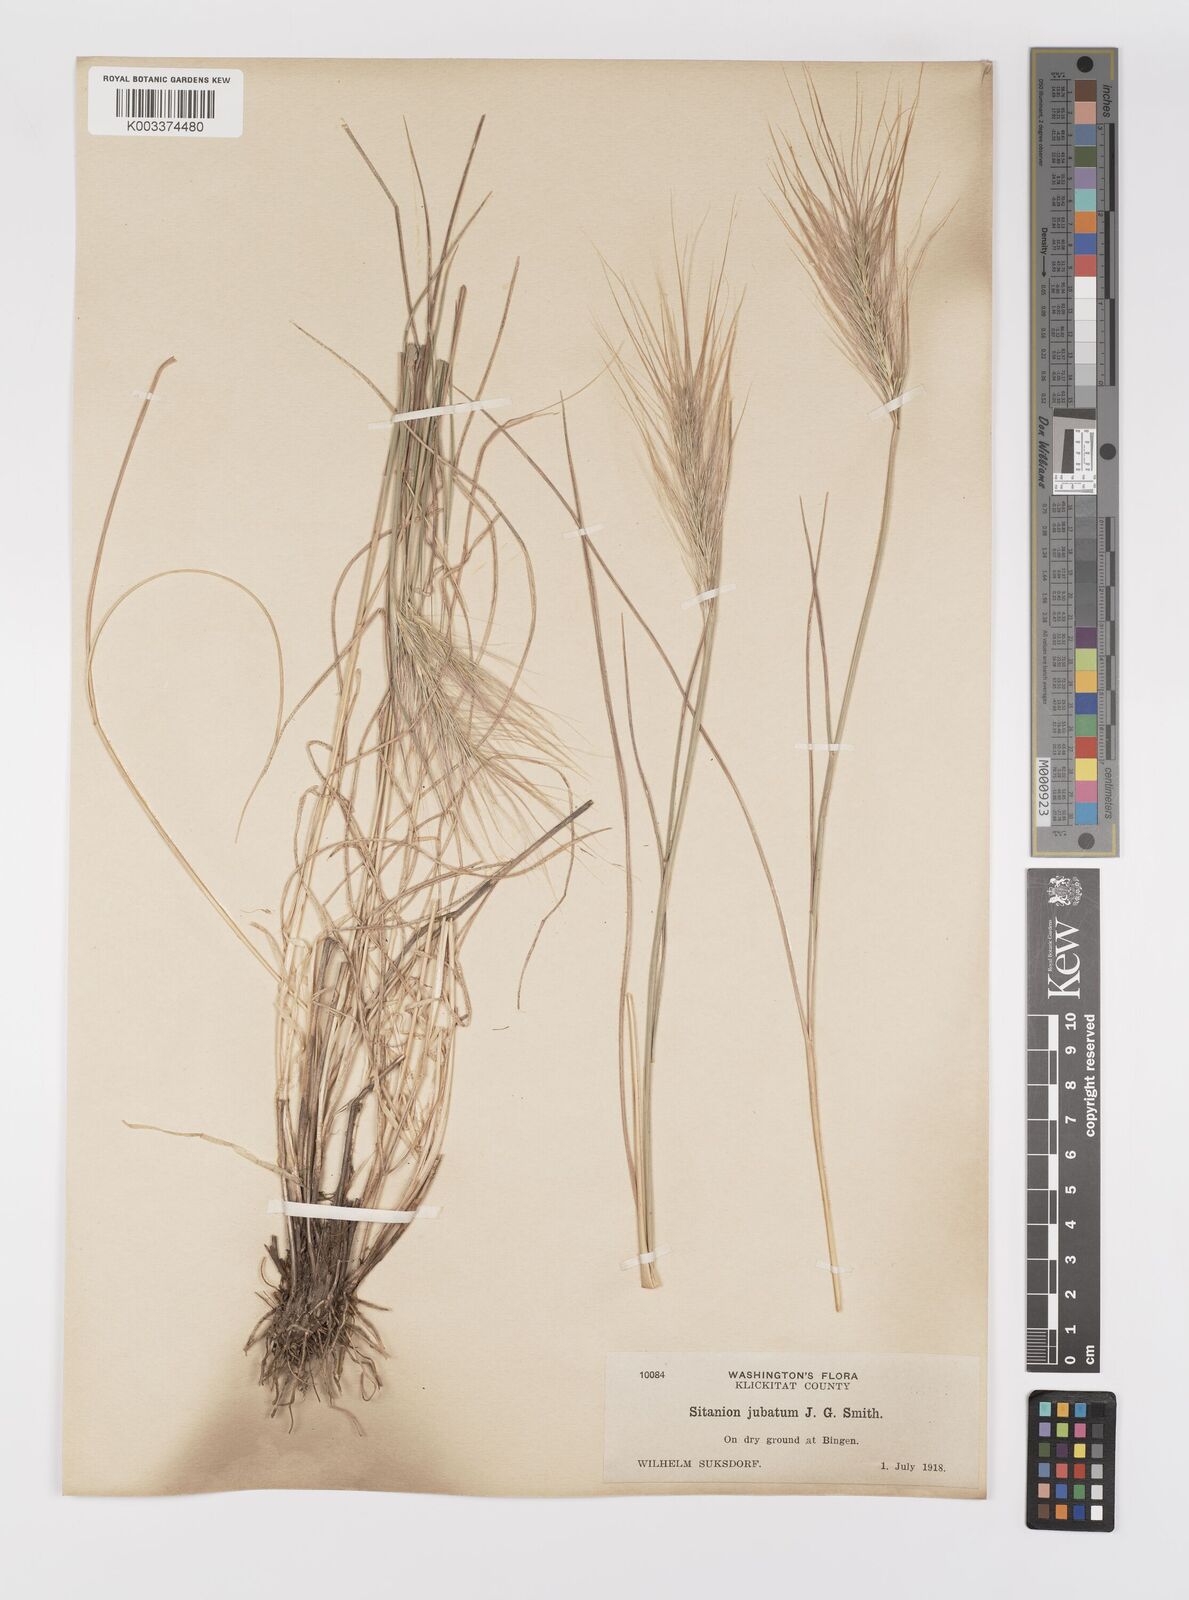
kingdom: Plantae
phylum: Tracheophyta
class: Liliopsida
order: Poales
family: Poaceae
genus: Elymus
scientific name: Elymus multisetus
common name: Big squirreltail
